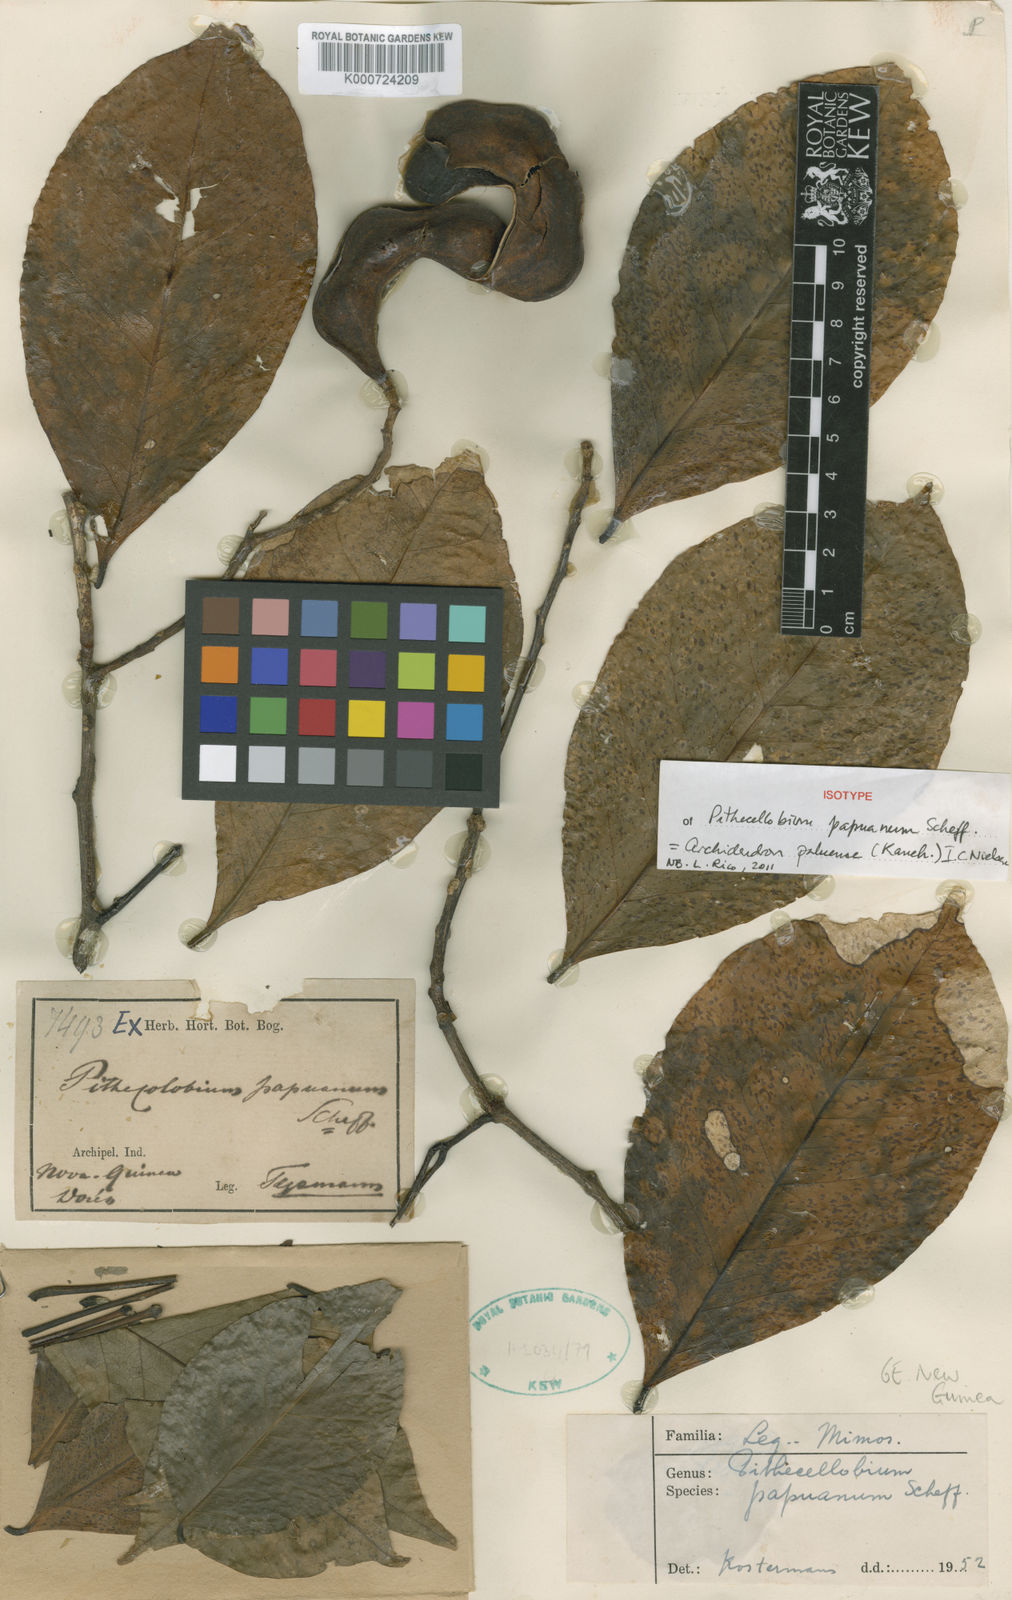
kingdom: Plantae
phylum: Tracheophyta
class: Magnoliopsida
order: Fabales
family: Fabaceae
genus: Archidendron
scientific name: Archidendron palauense
